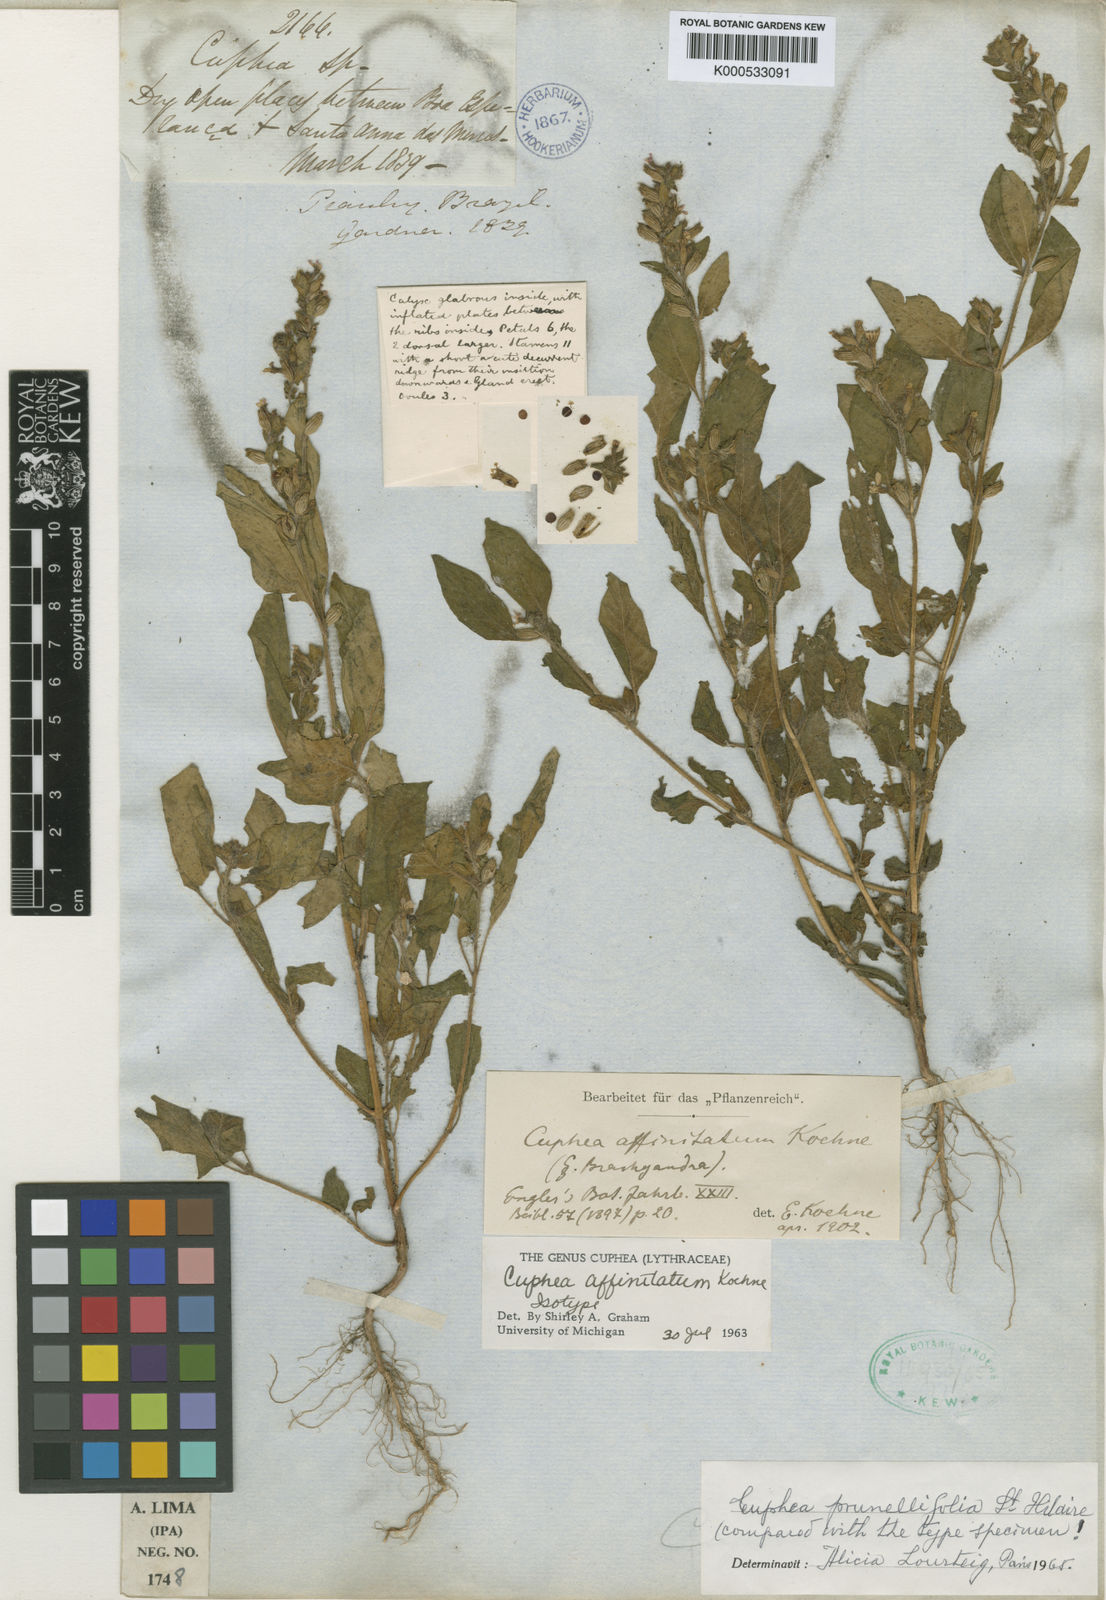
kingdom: Plantae
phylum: Tracheophyta
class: Magnoliopsida
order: Myrtales
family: Lythraceae
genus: Cuphea
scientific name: Cuphea
